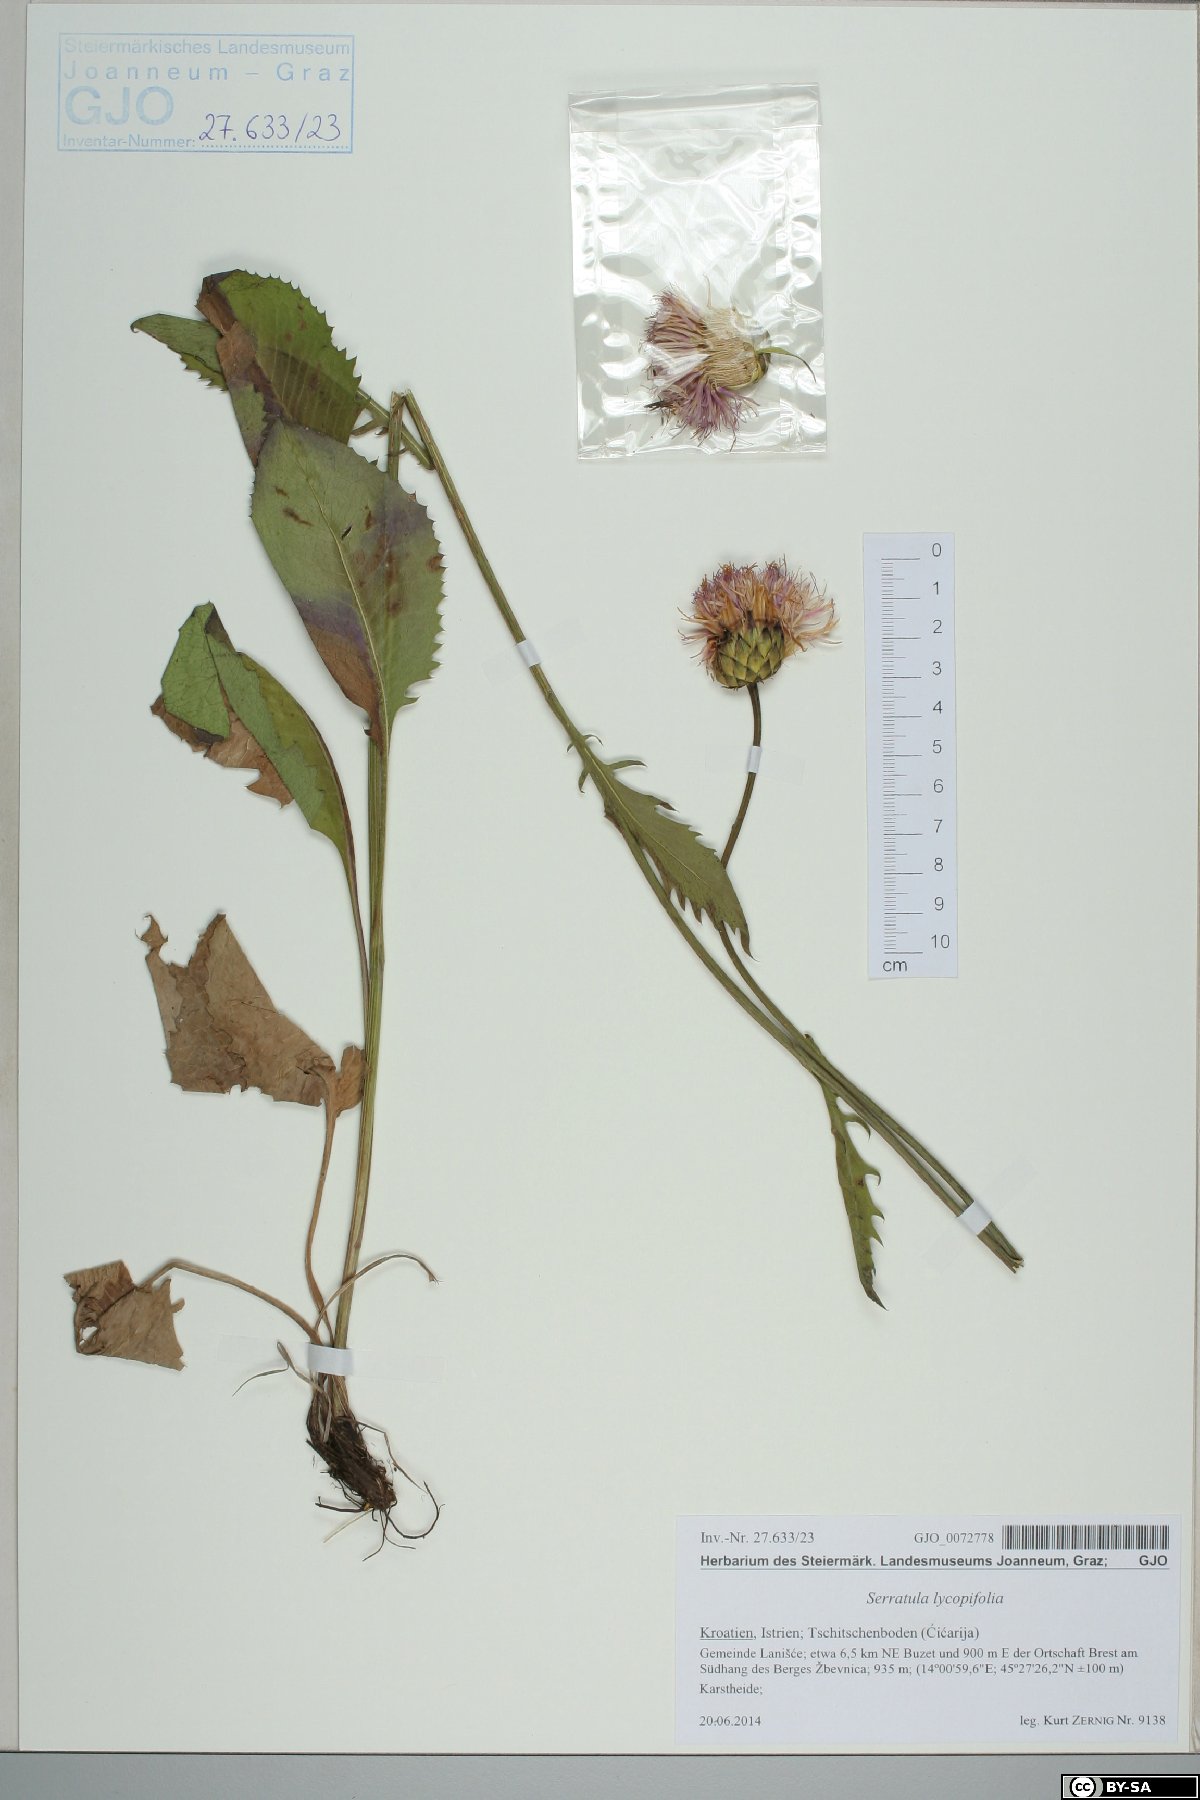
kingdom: Plantae
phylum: Tracheophyta
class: Magnoliopsida
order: Asterales
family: Asteraceae
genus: Klasea
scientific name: Klasea lycopifolia
